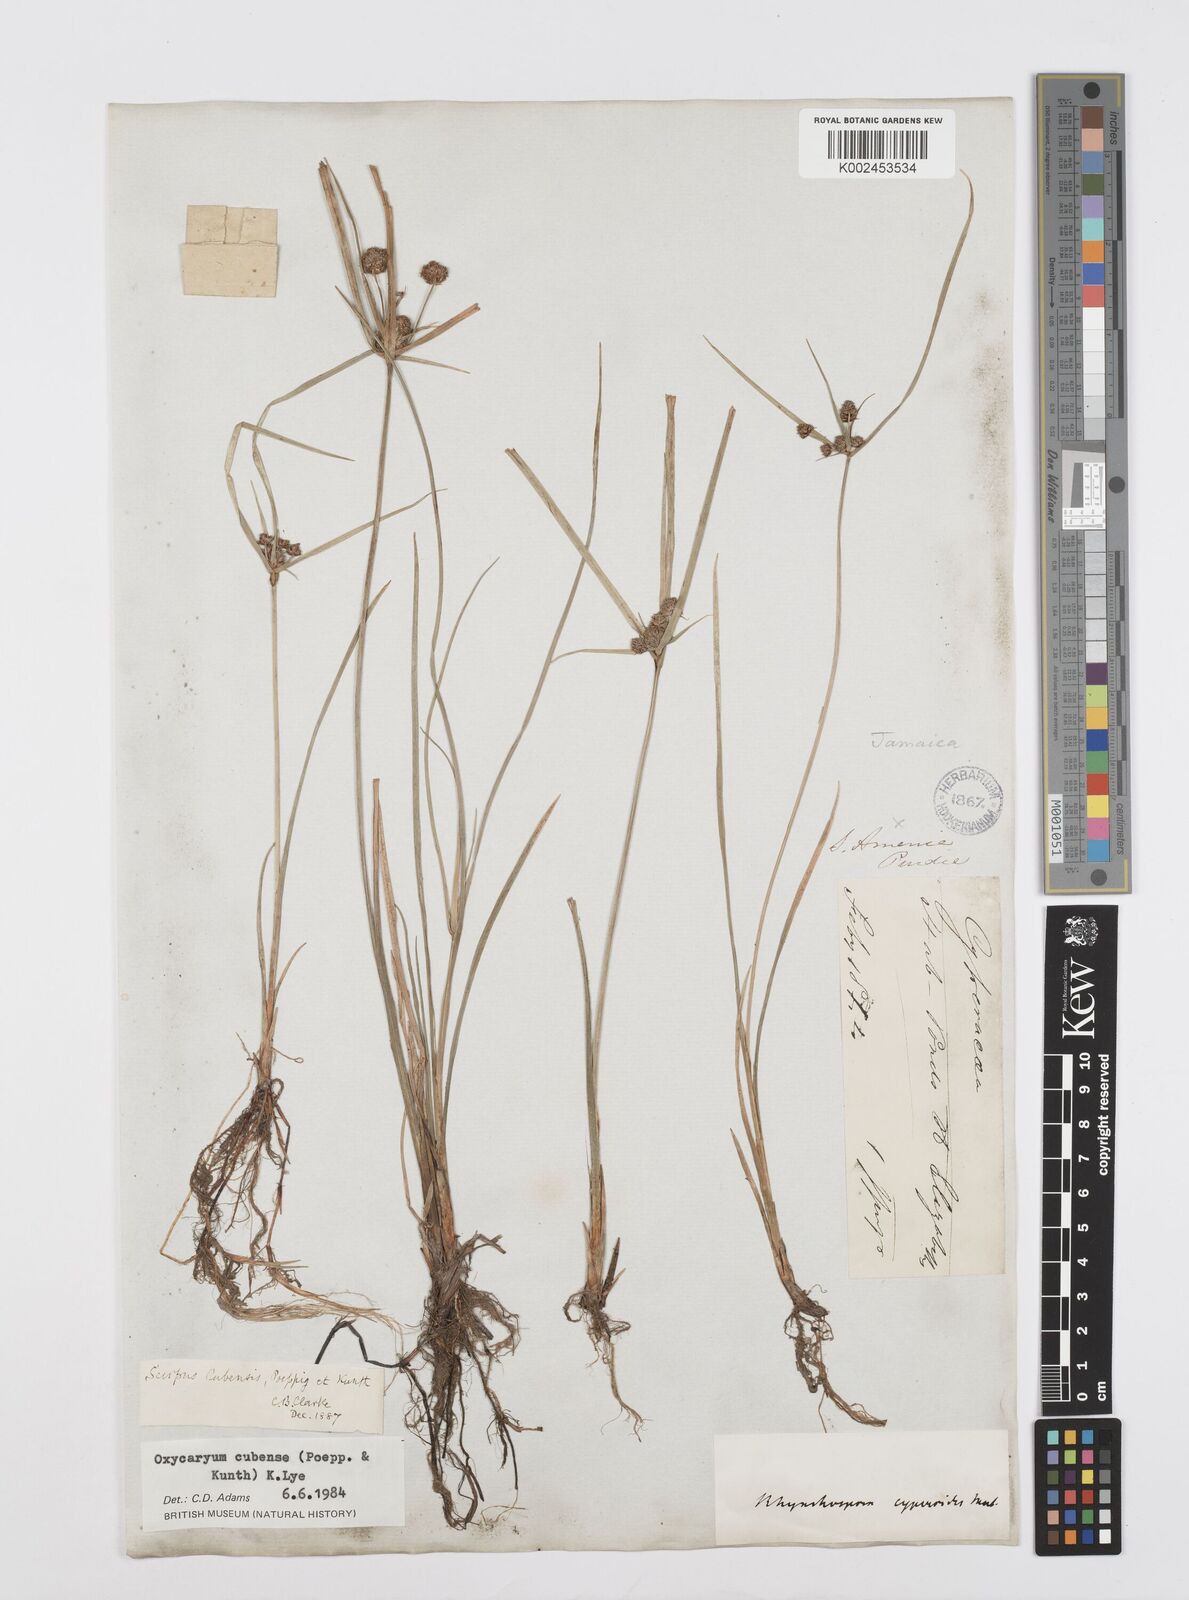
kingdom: Plantae
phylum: Tracheophyta
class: Liliopsida
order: Poales
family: Cyperaceae
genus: Cyperus
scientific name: Cyperus elegans
